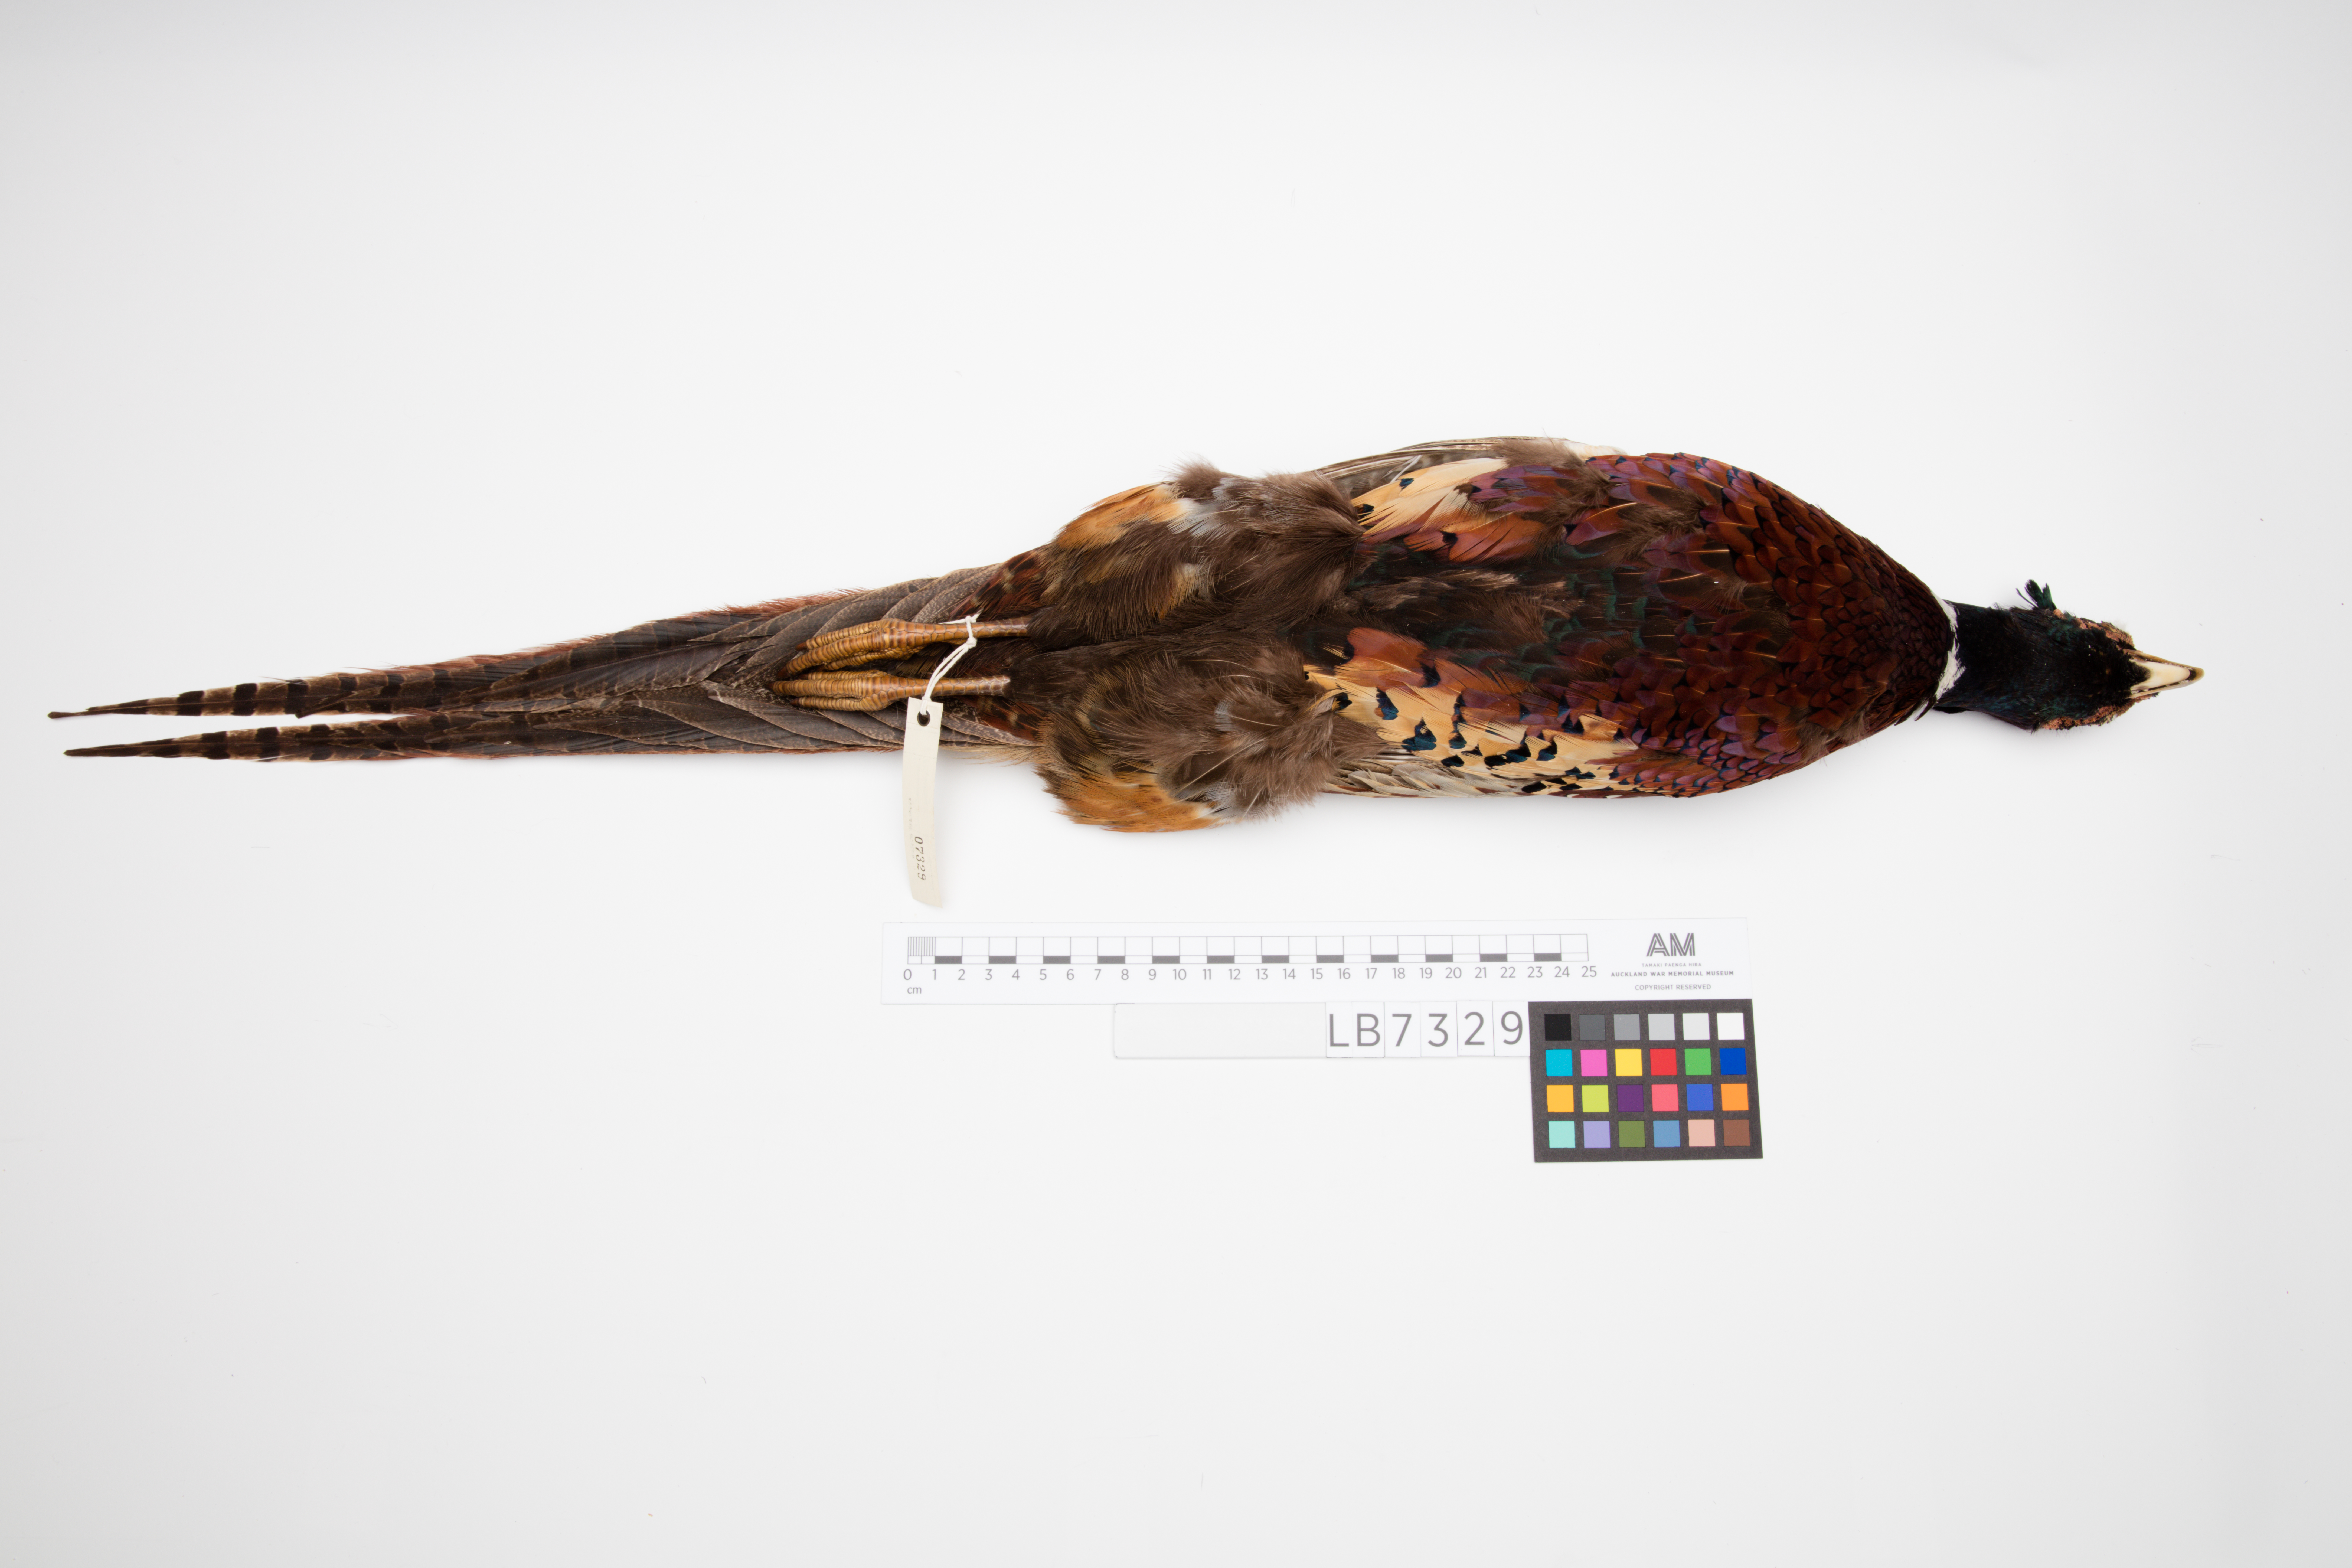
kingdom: Animalia
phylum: Chordata
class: Aves
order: Galliformes
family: Phasianidae
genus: Phasianus
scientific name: Phasianus colchicus
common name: Common pheasant
